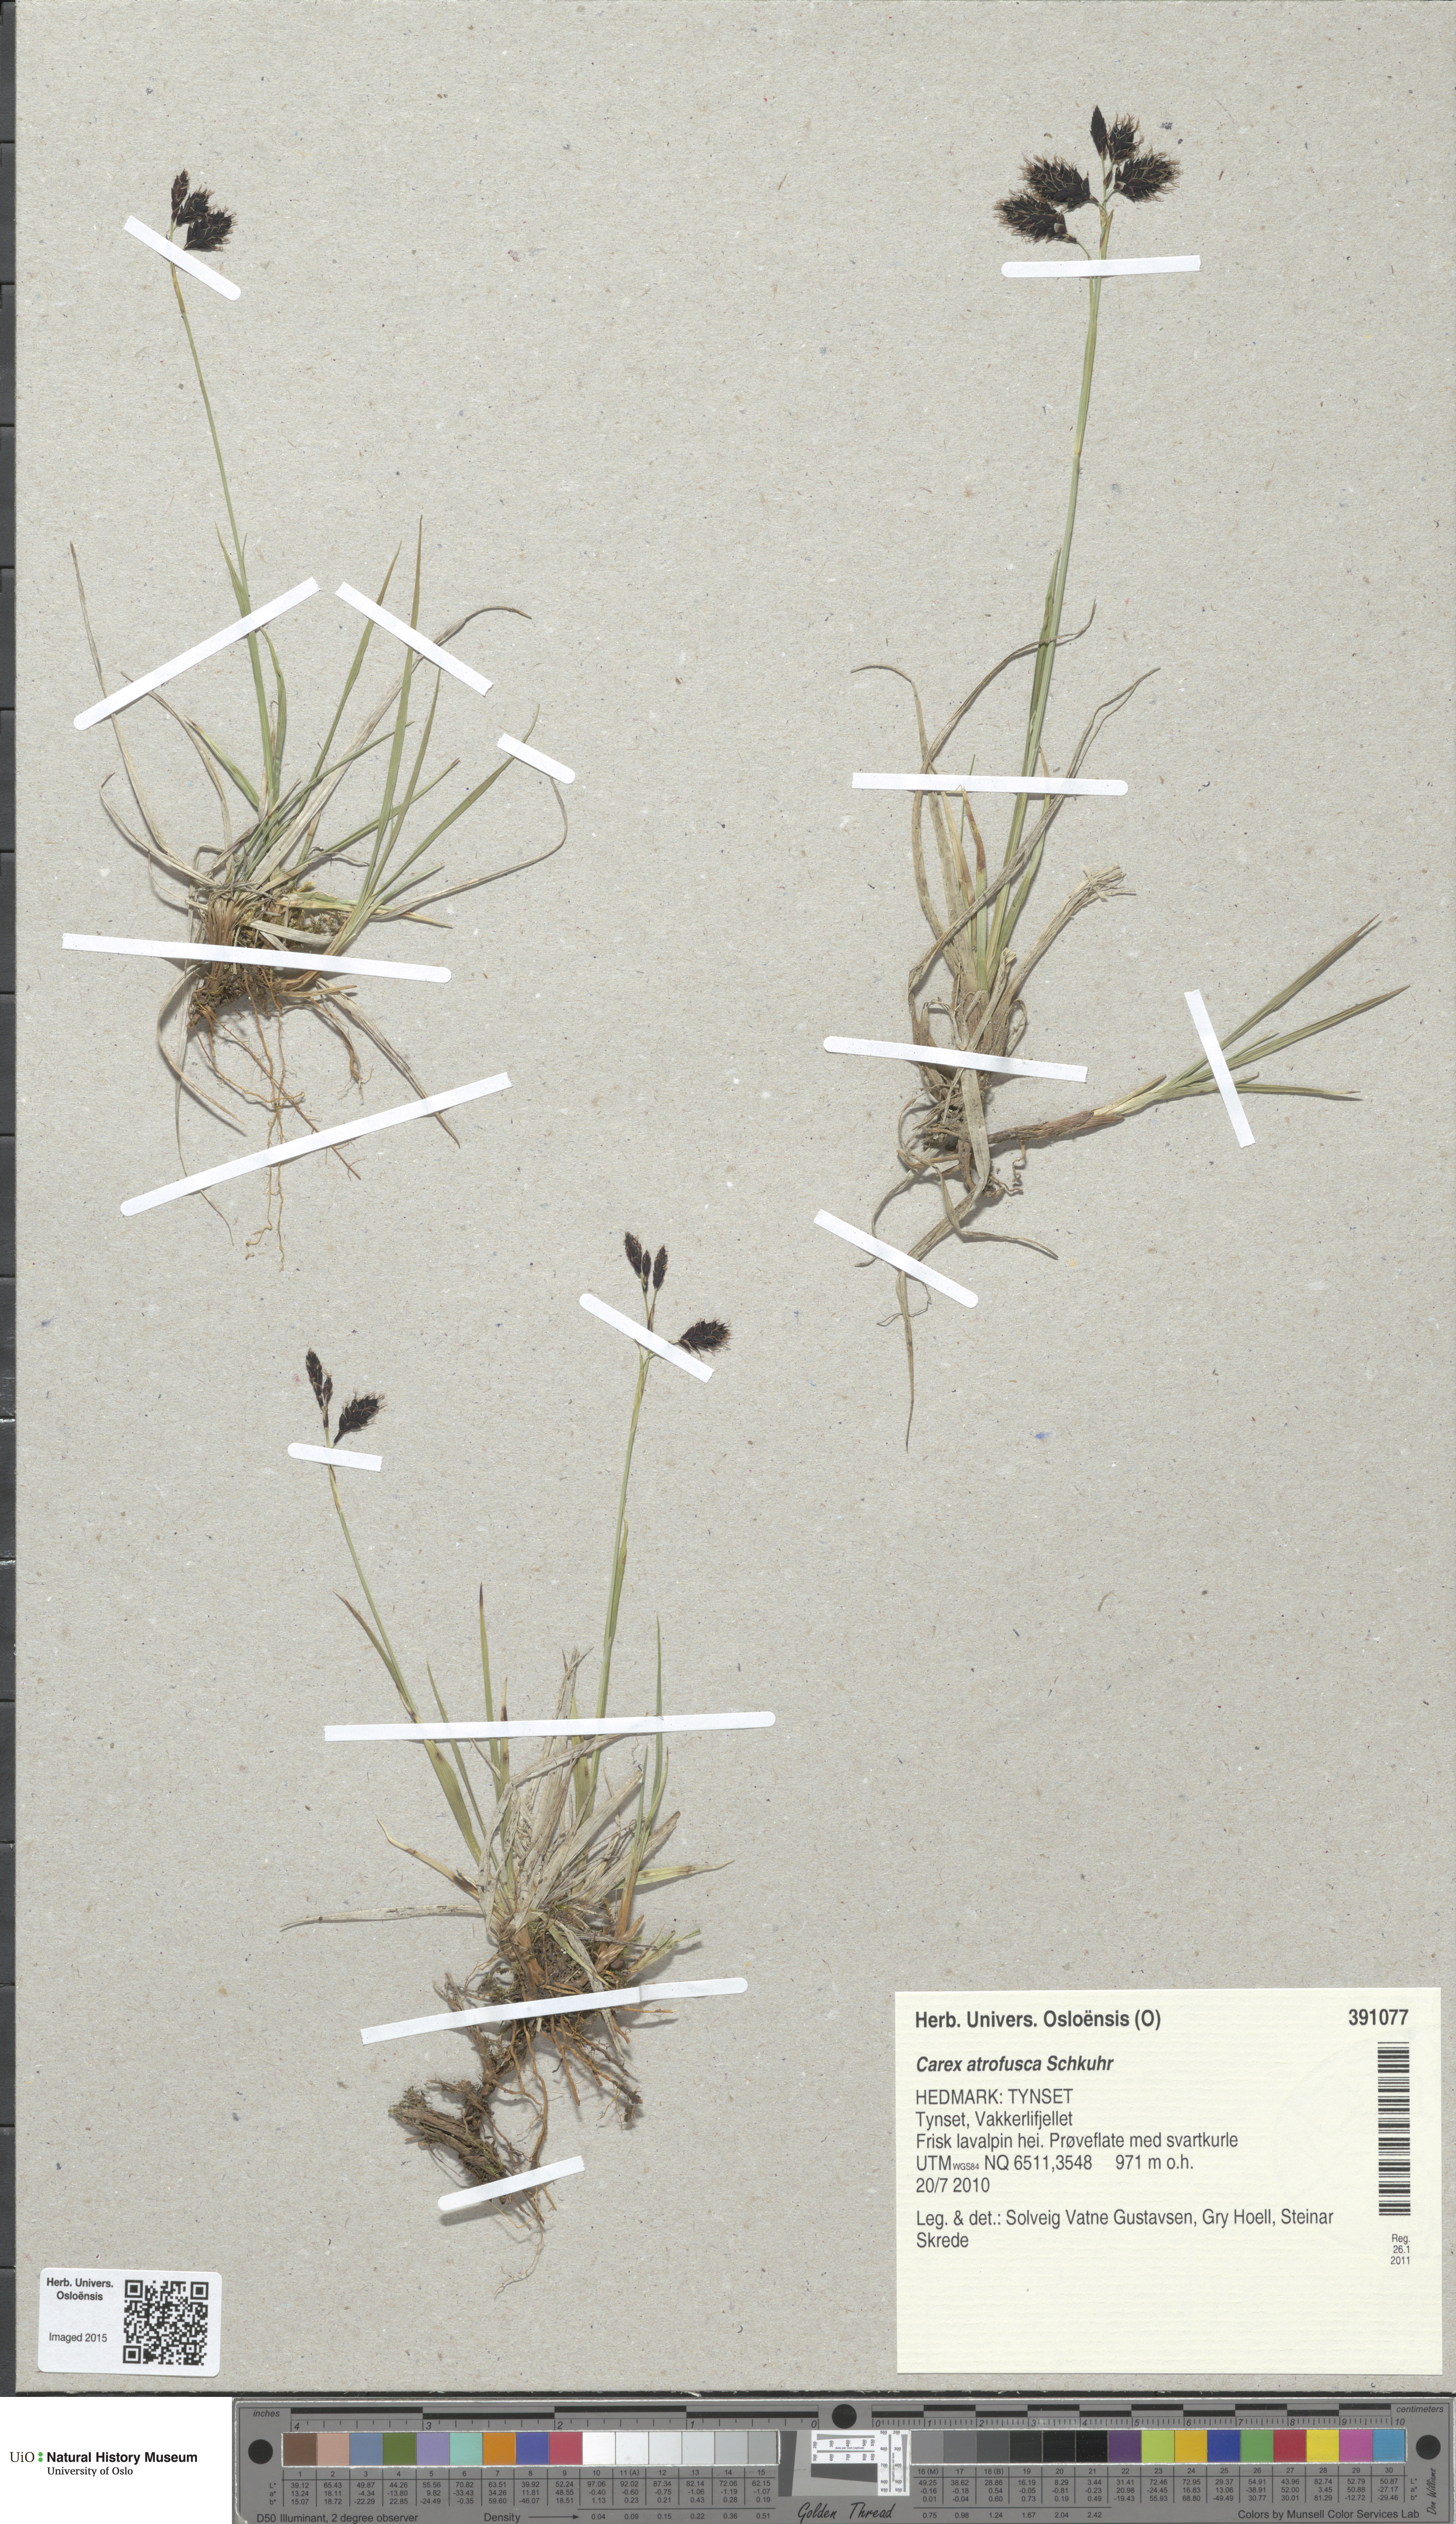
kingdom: Plantae
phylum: Tracheophyta
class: Liliopsida
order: Poales
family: Cyperaceae
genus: Carex
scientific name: Carex atrofusca
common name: Scorched alpine-sedge
